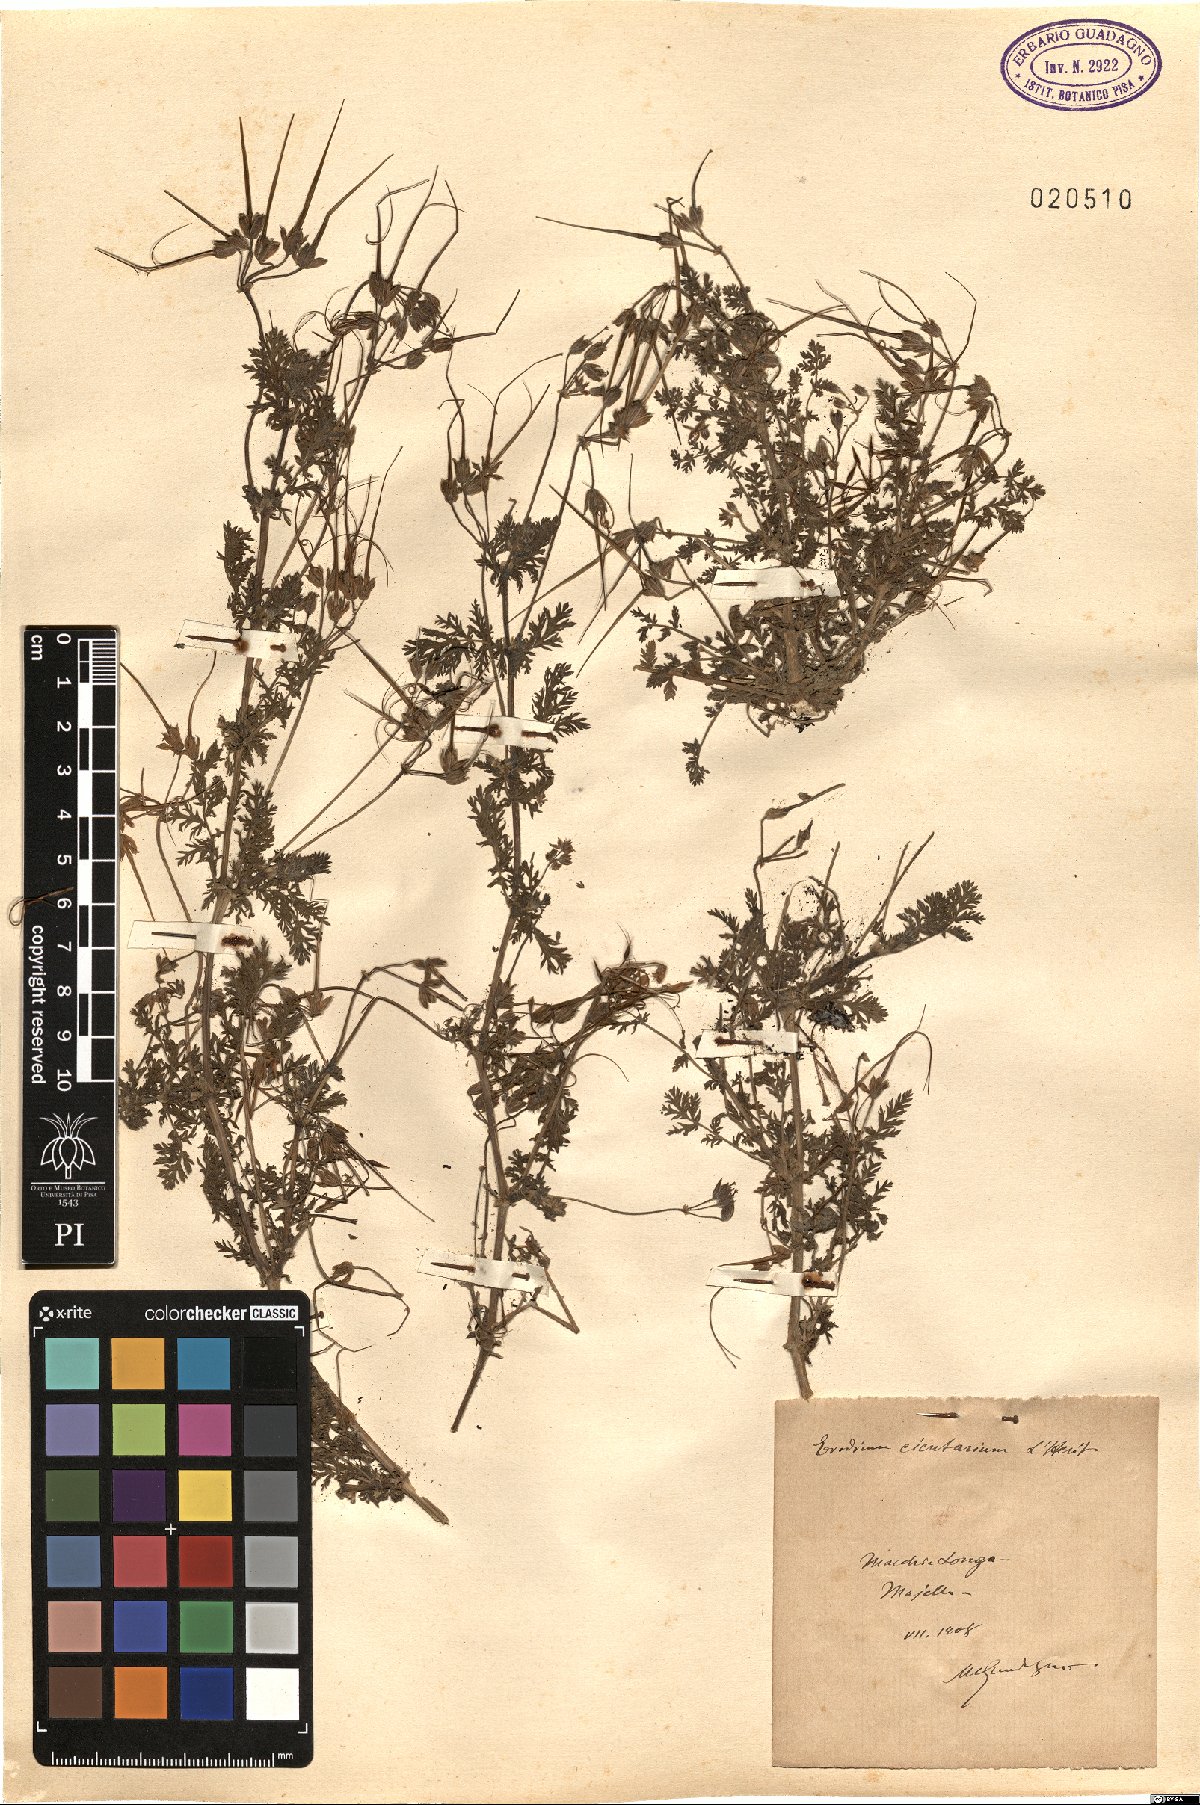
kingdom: Plantae
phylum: Tracheophyta
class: Magnoliopsida
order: Geraniales
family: Geraniaceae
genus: Erodium
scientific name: Erodium cicutarium
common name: Common stork's-bill
